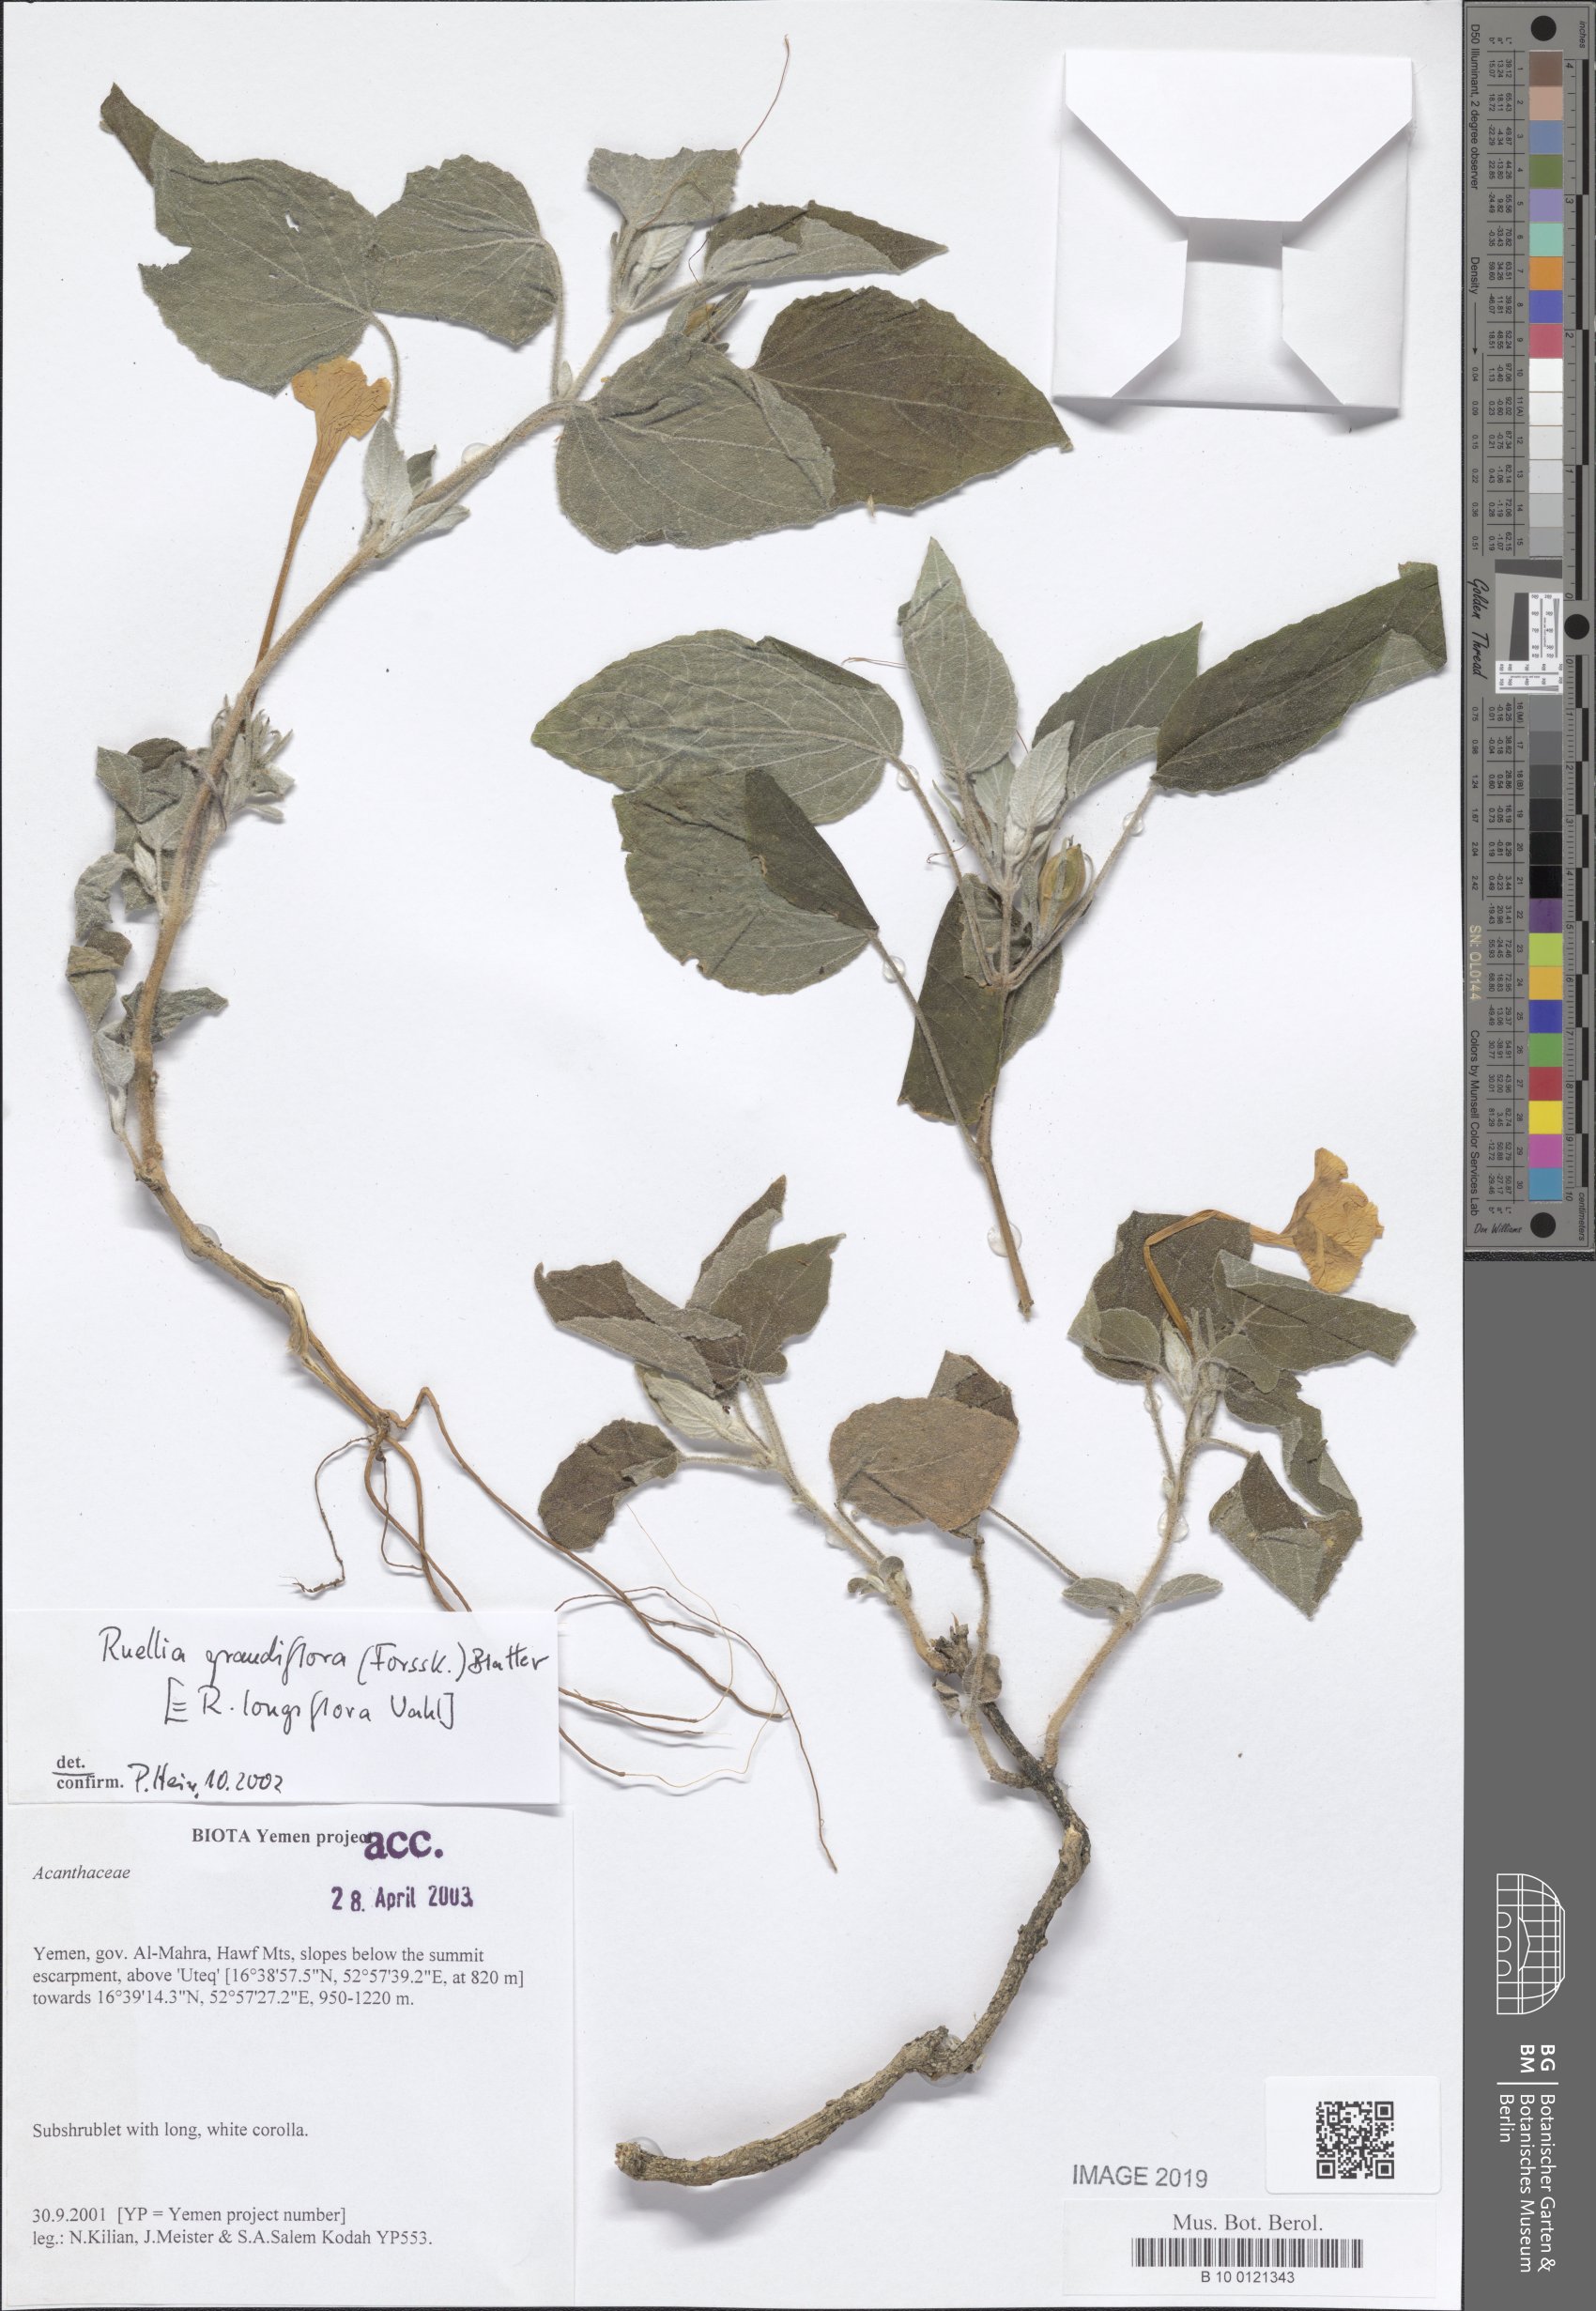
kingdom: Plantae
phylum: Tracheophyta
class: Magnoliopsida
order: Lamiales
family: Acanthaceae
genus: Ruellia
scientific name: Ruellia grandiflora
